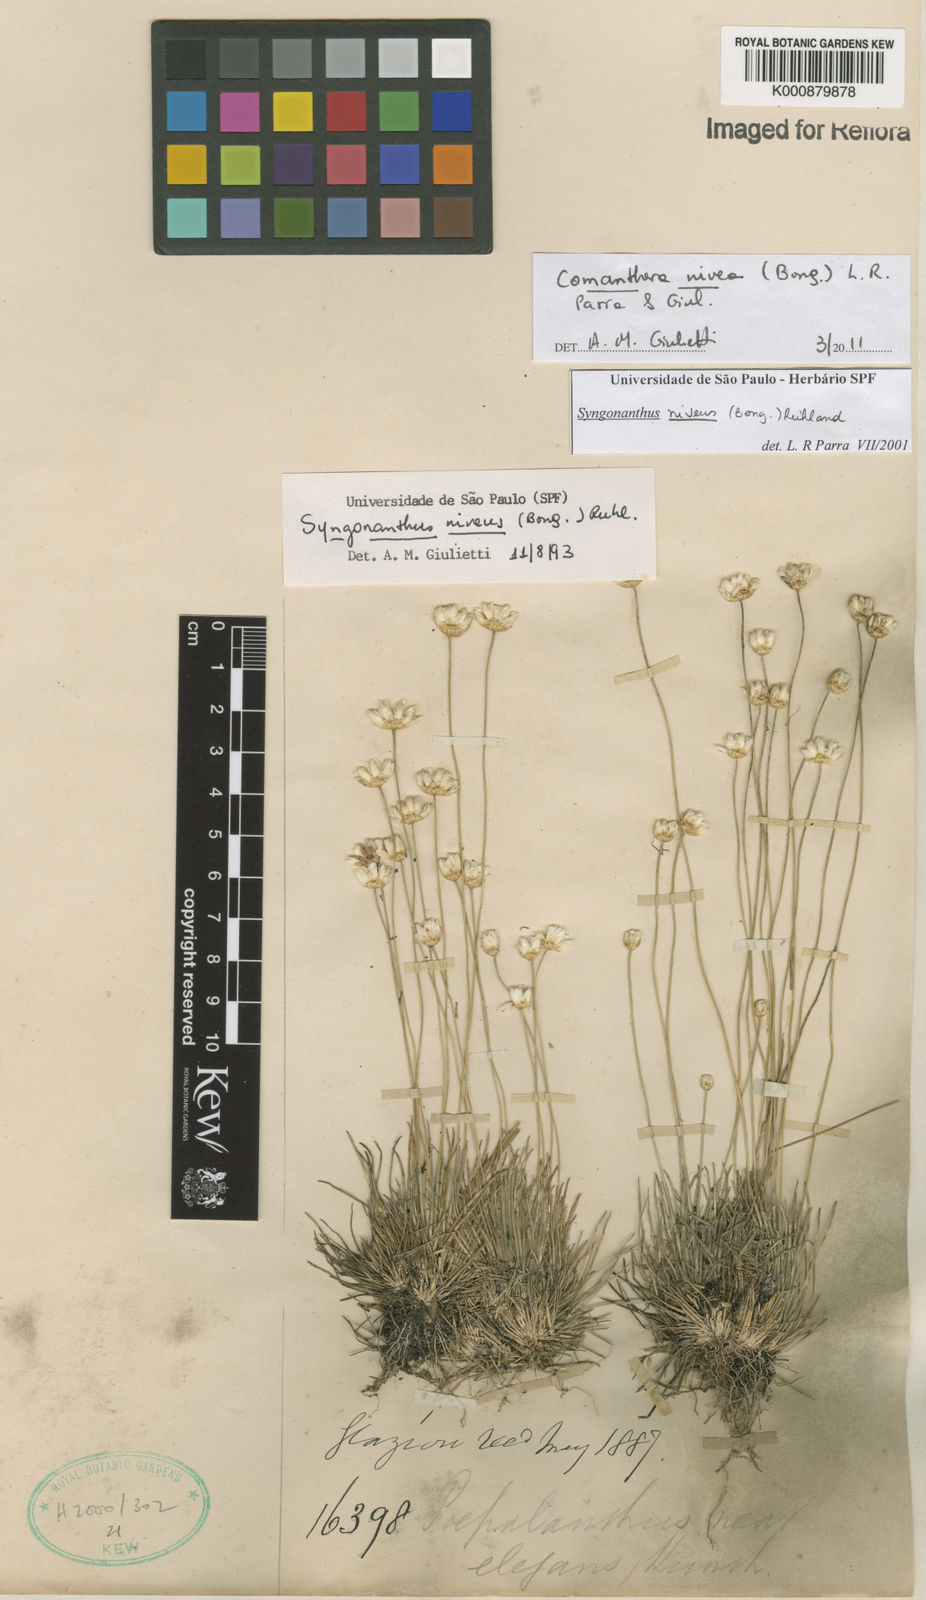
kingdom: Plantae
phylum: Tracheophyta
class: Liliopsida
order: Poales
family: Eriocaulaceae
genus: Comanthera
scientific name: Comanthera nivea
